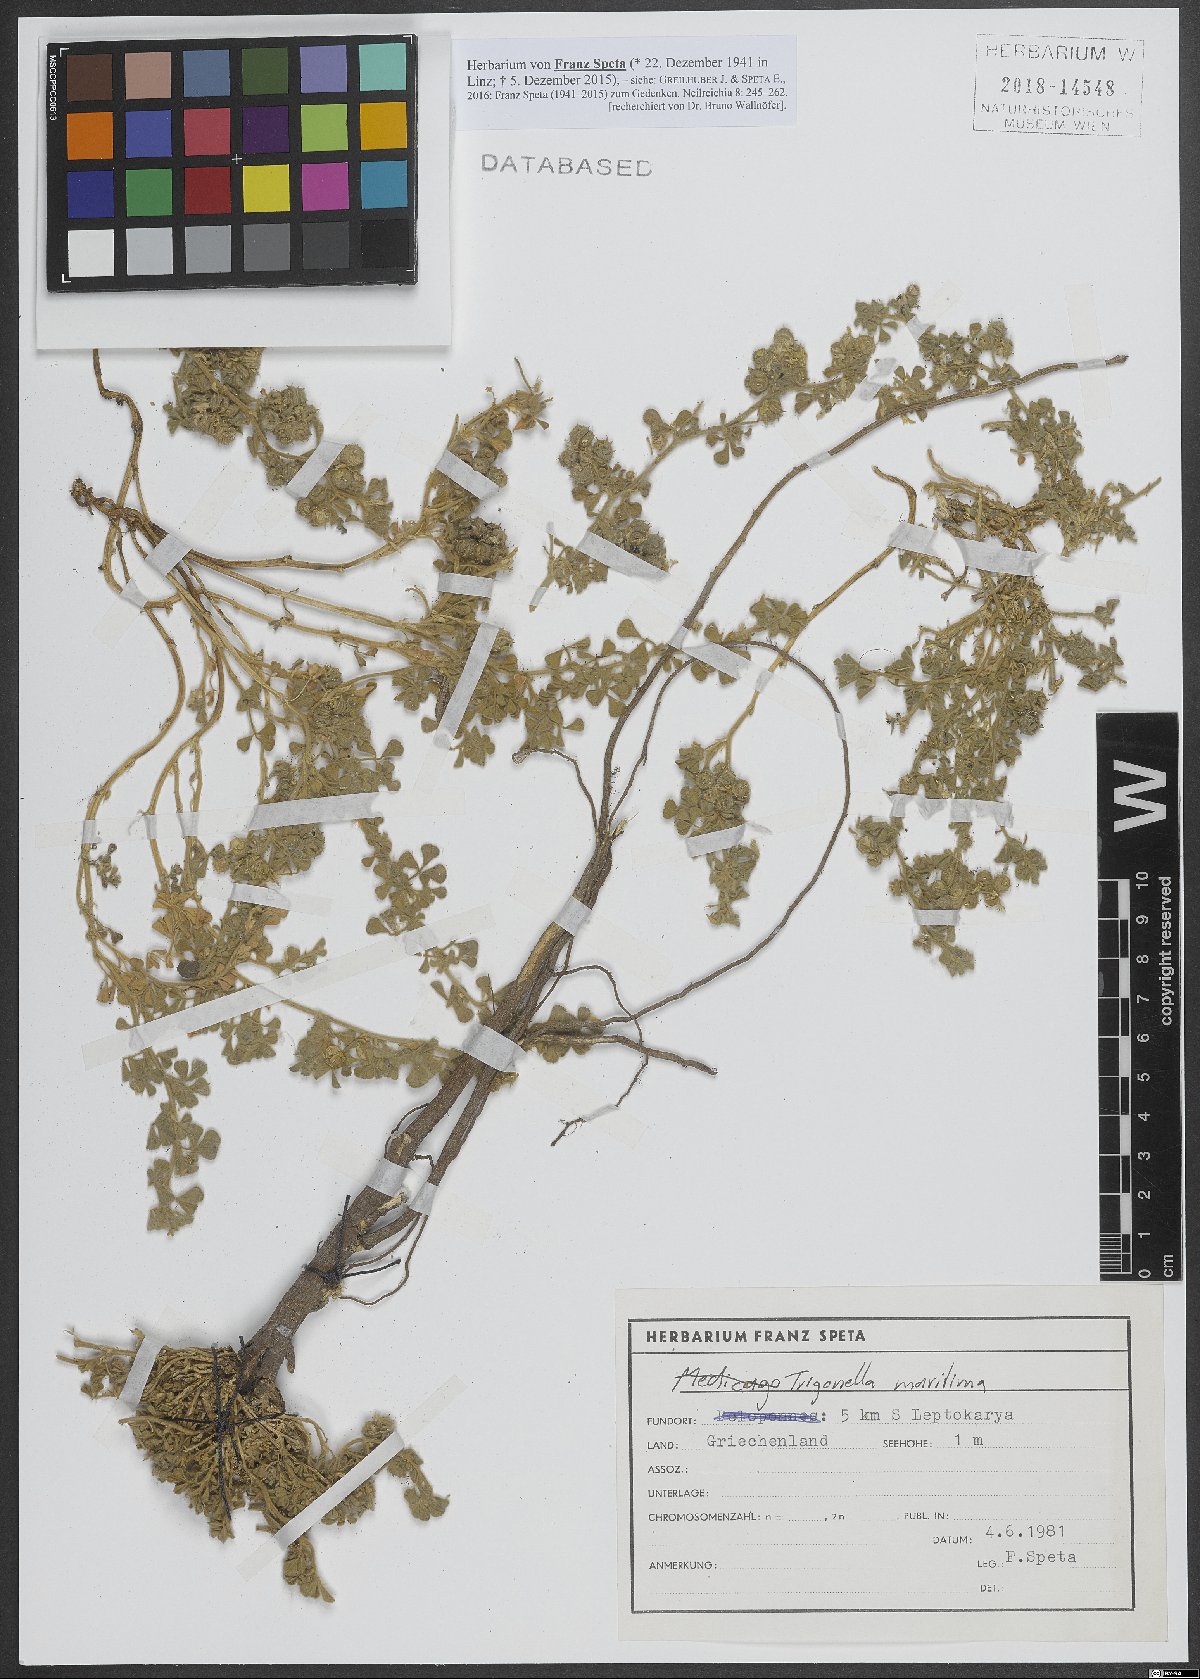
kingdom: Plantae
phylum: Tracheophyta
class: Magnoliopsida
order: Fabales
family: Fabaceae
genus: Trigonella
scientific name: Trigonella maritima
